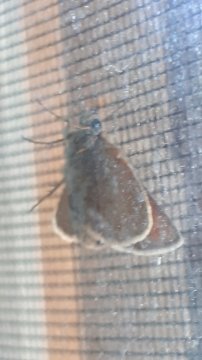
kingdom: Animalia
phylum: Arthropoda
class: Insecta
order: Lepidoptera
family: Hesperiidae
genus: Thymelicus
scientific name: Thymelicus lineola
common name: European Skipper
